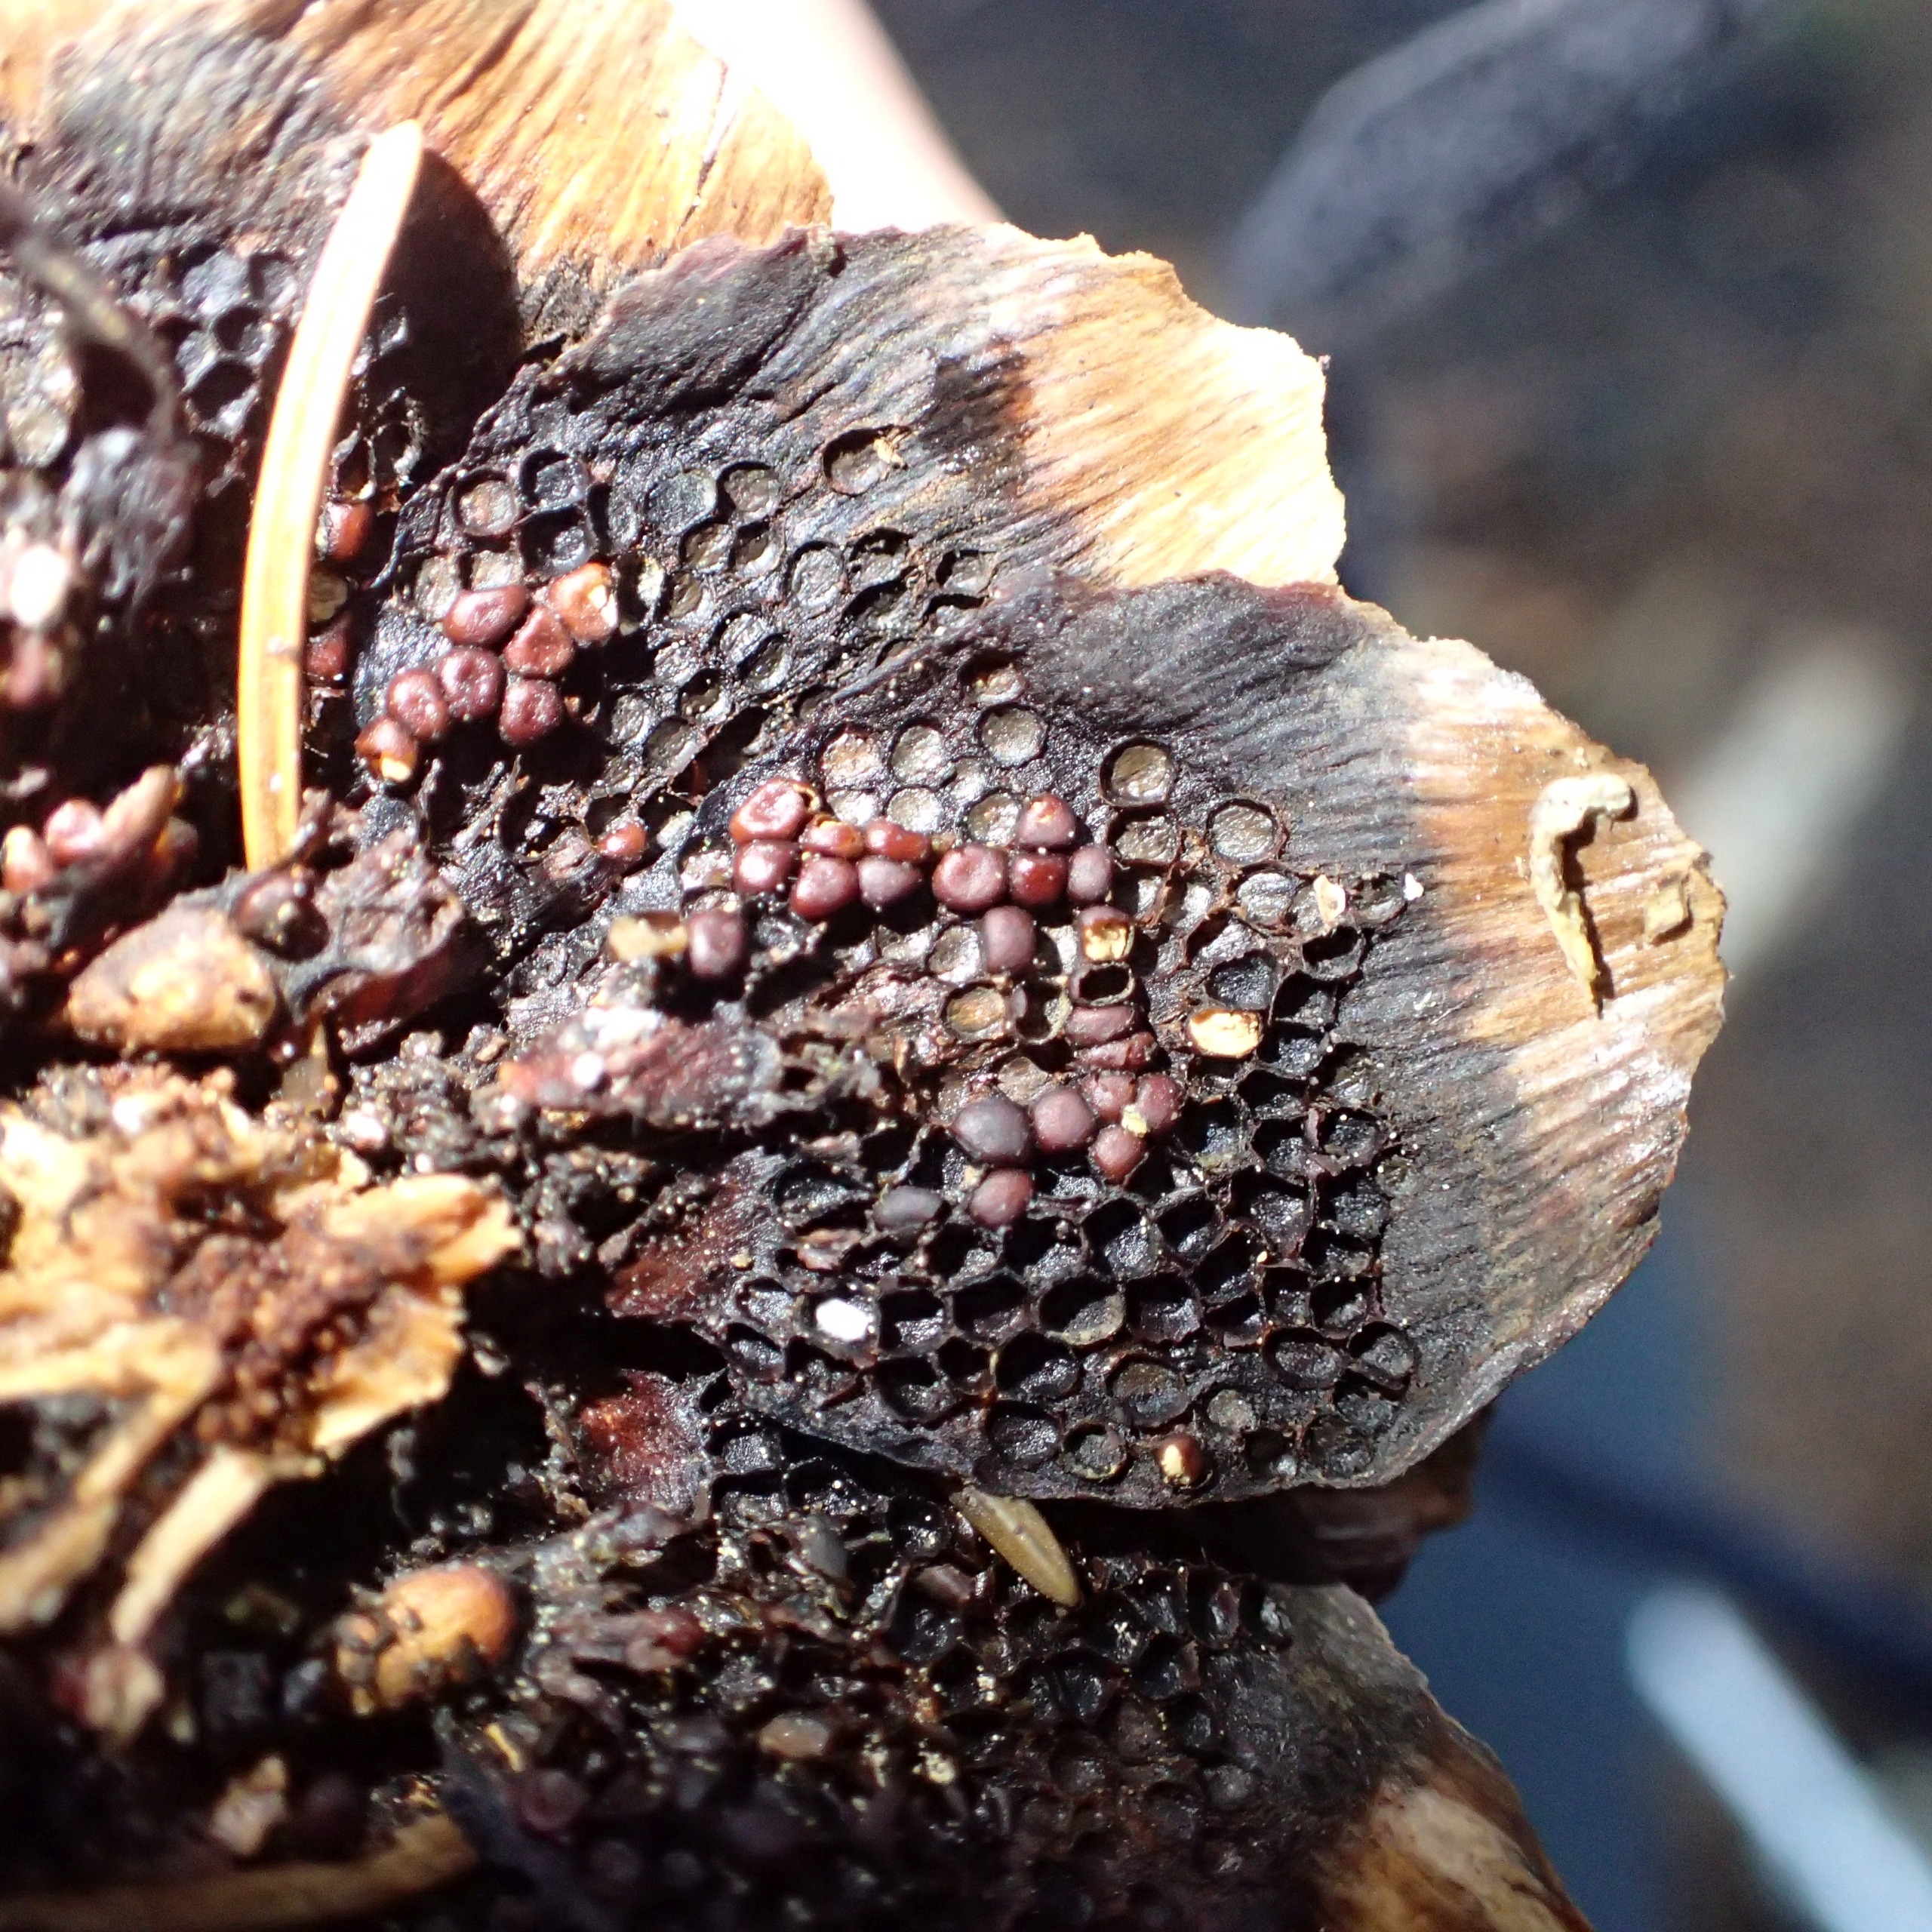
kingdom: Fungi
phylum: Basidiomycota
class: Pucciniomycetes
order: Pucciniales
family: Pucciniastraceae
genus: Thekopsora
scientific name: Thekopsora areolata
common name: Grankogle-nålerust
